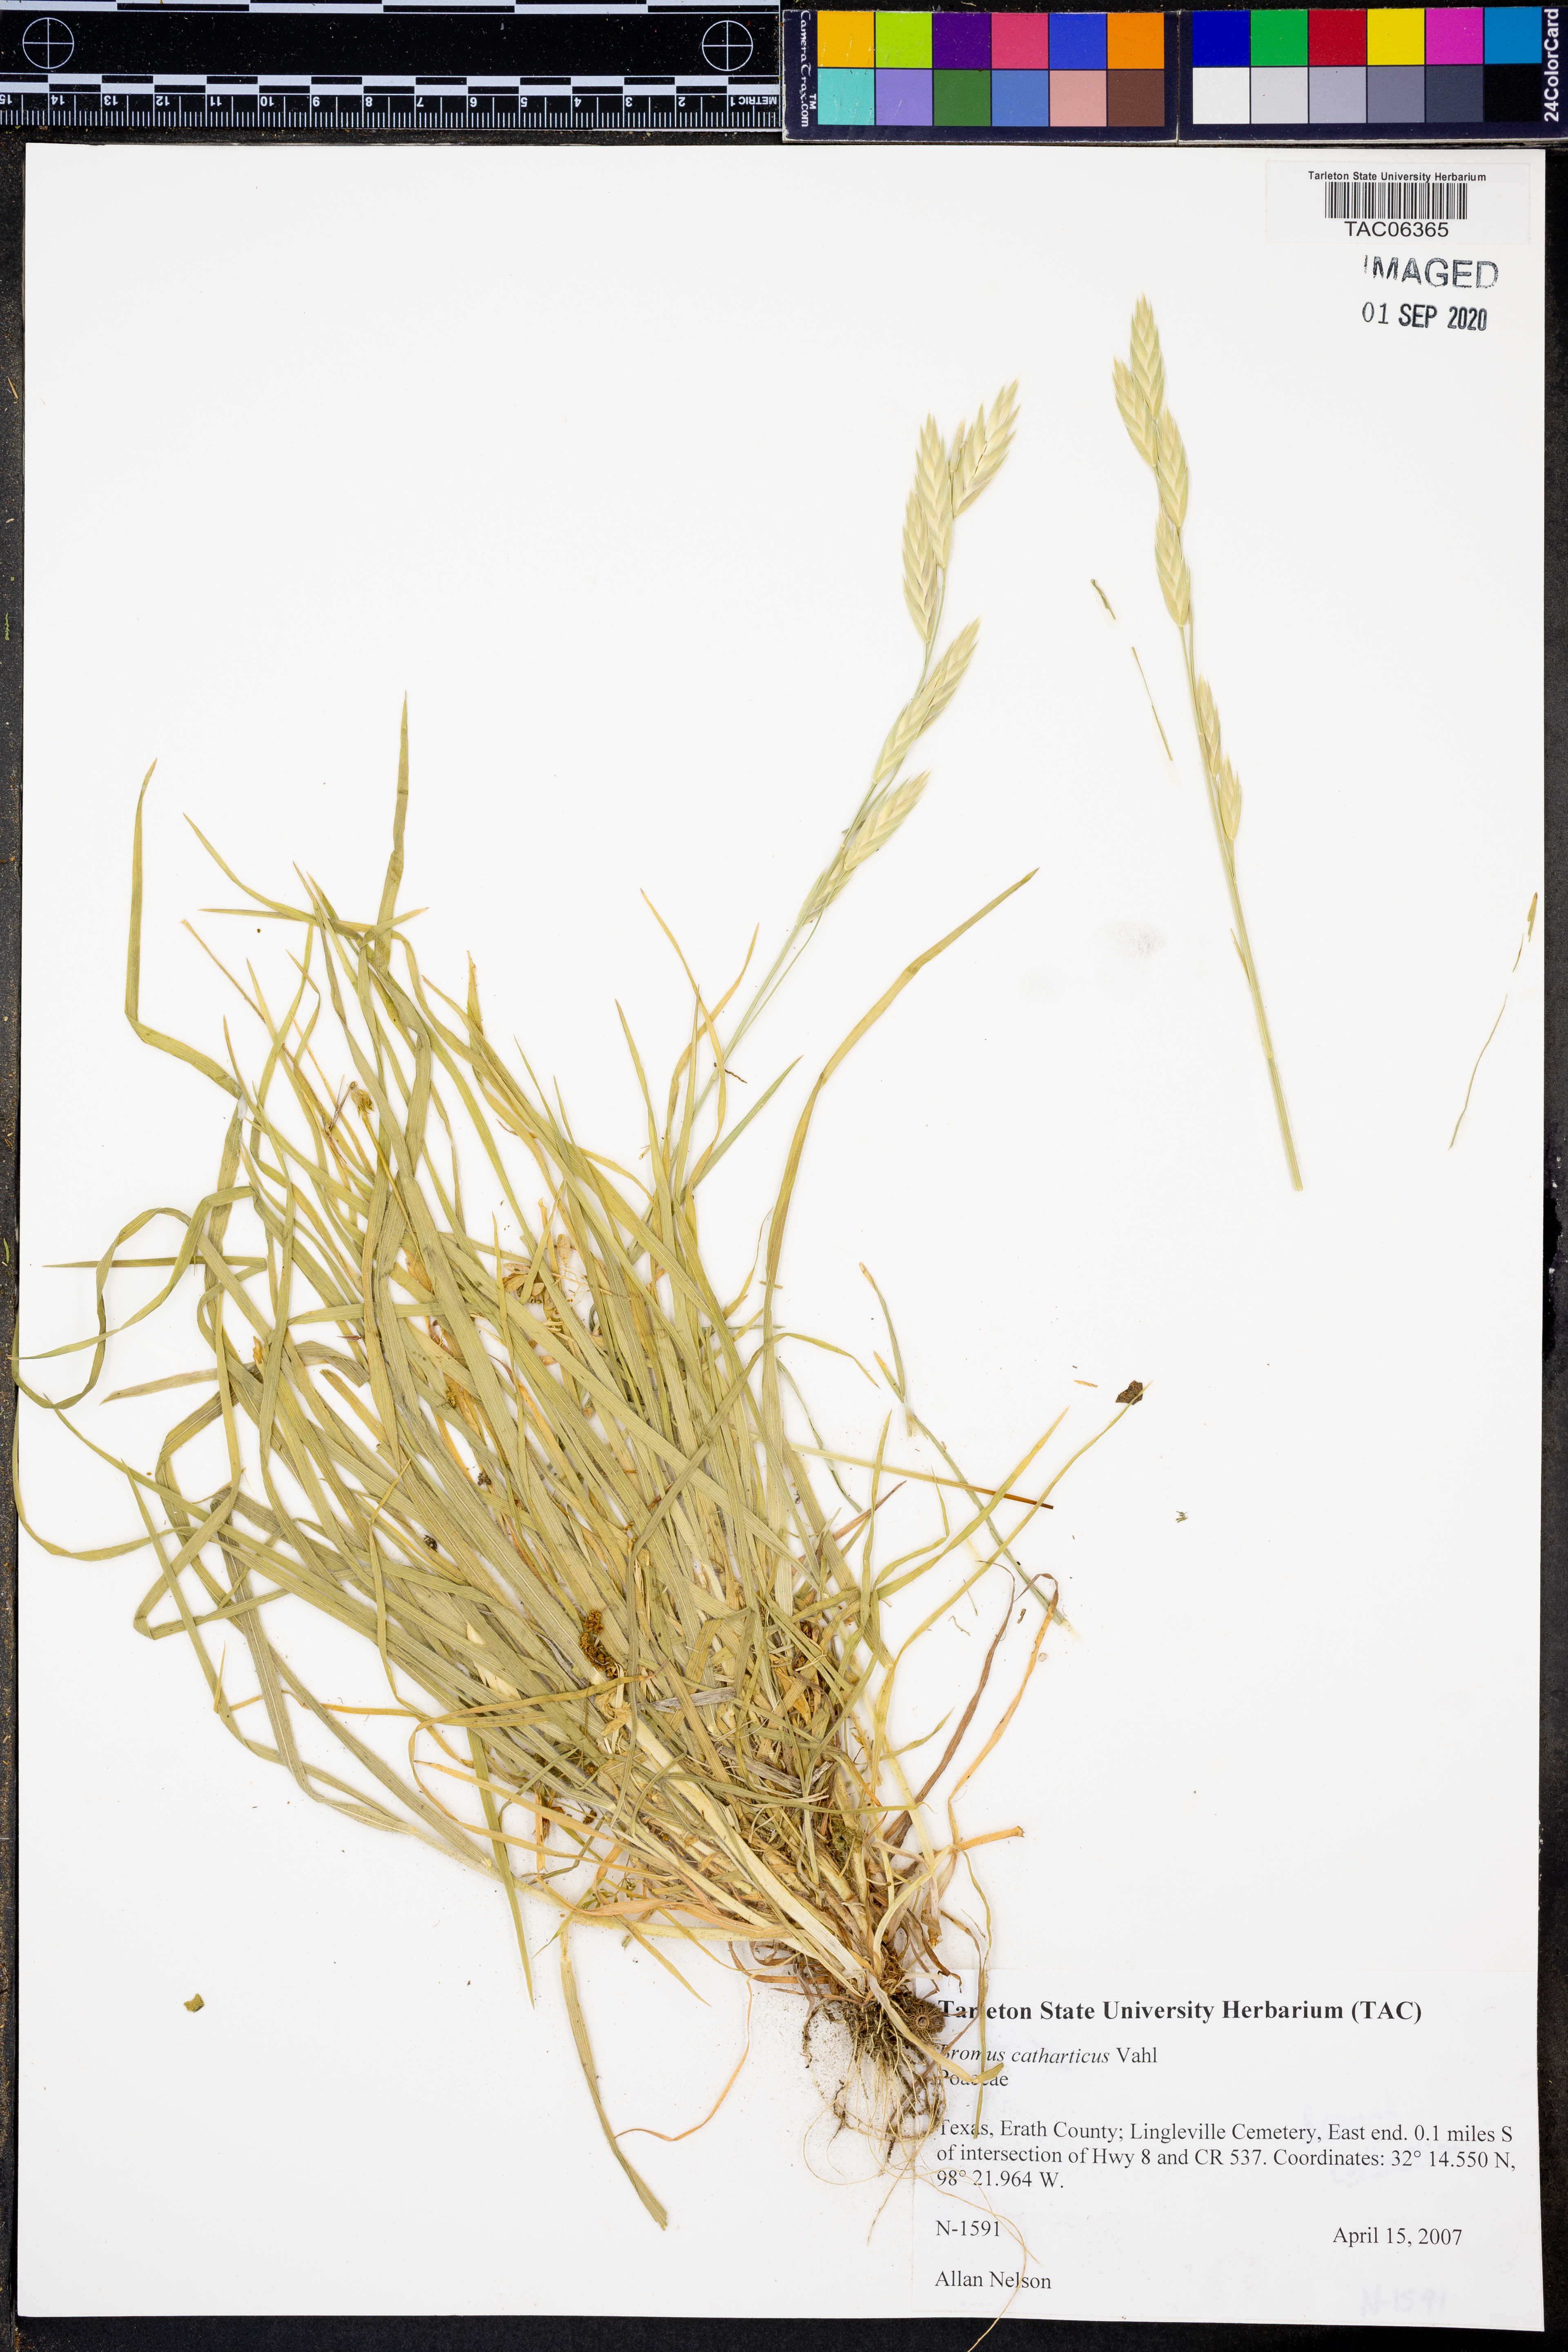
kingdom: Plantae
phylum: Tracheophyta
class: Liliopsida
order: Poales
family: Poaceae
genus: Bromus
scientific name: Bromus catharticus
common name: Rescuegrass
